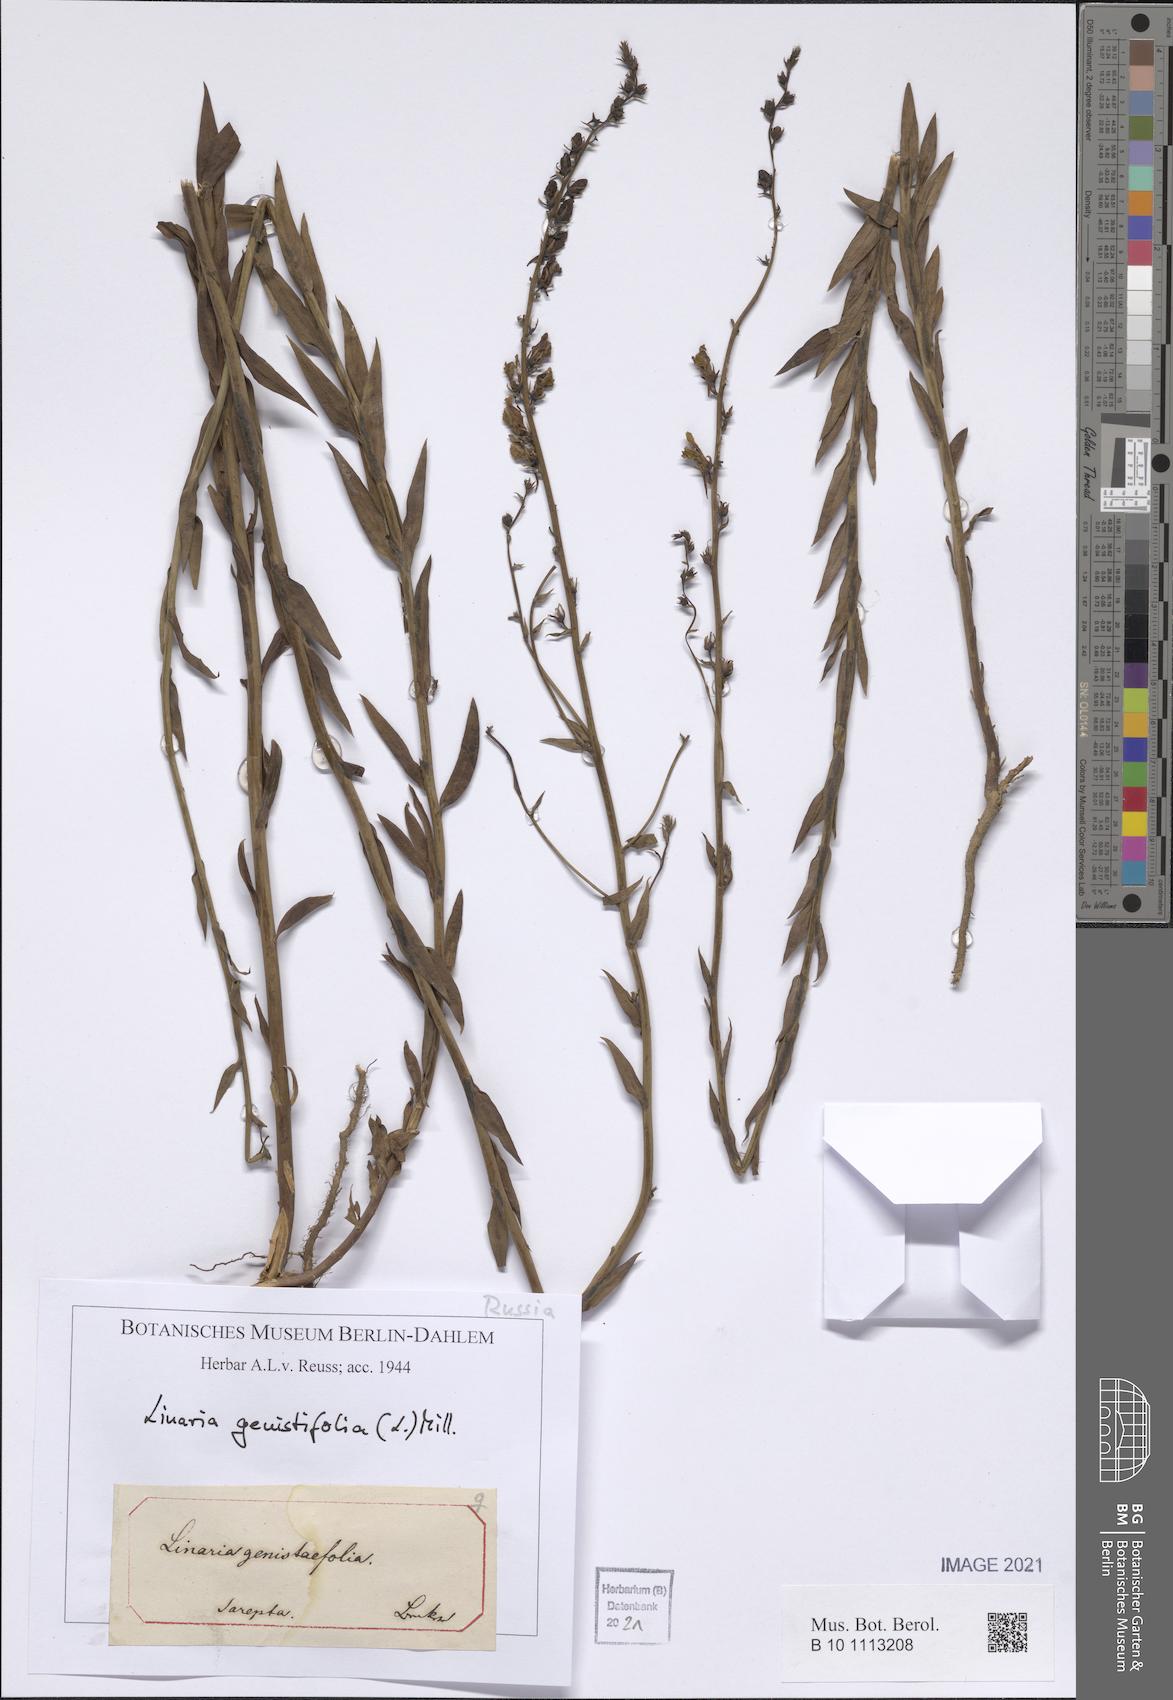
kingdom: Plantae
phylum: Tracheophyta
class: Magnoliopsida
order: Lamiales
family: Plantaginaceae
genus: Linaria
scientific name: Linaria genistifolia
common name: Broomleaf toadflax
